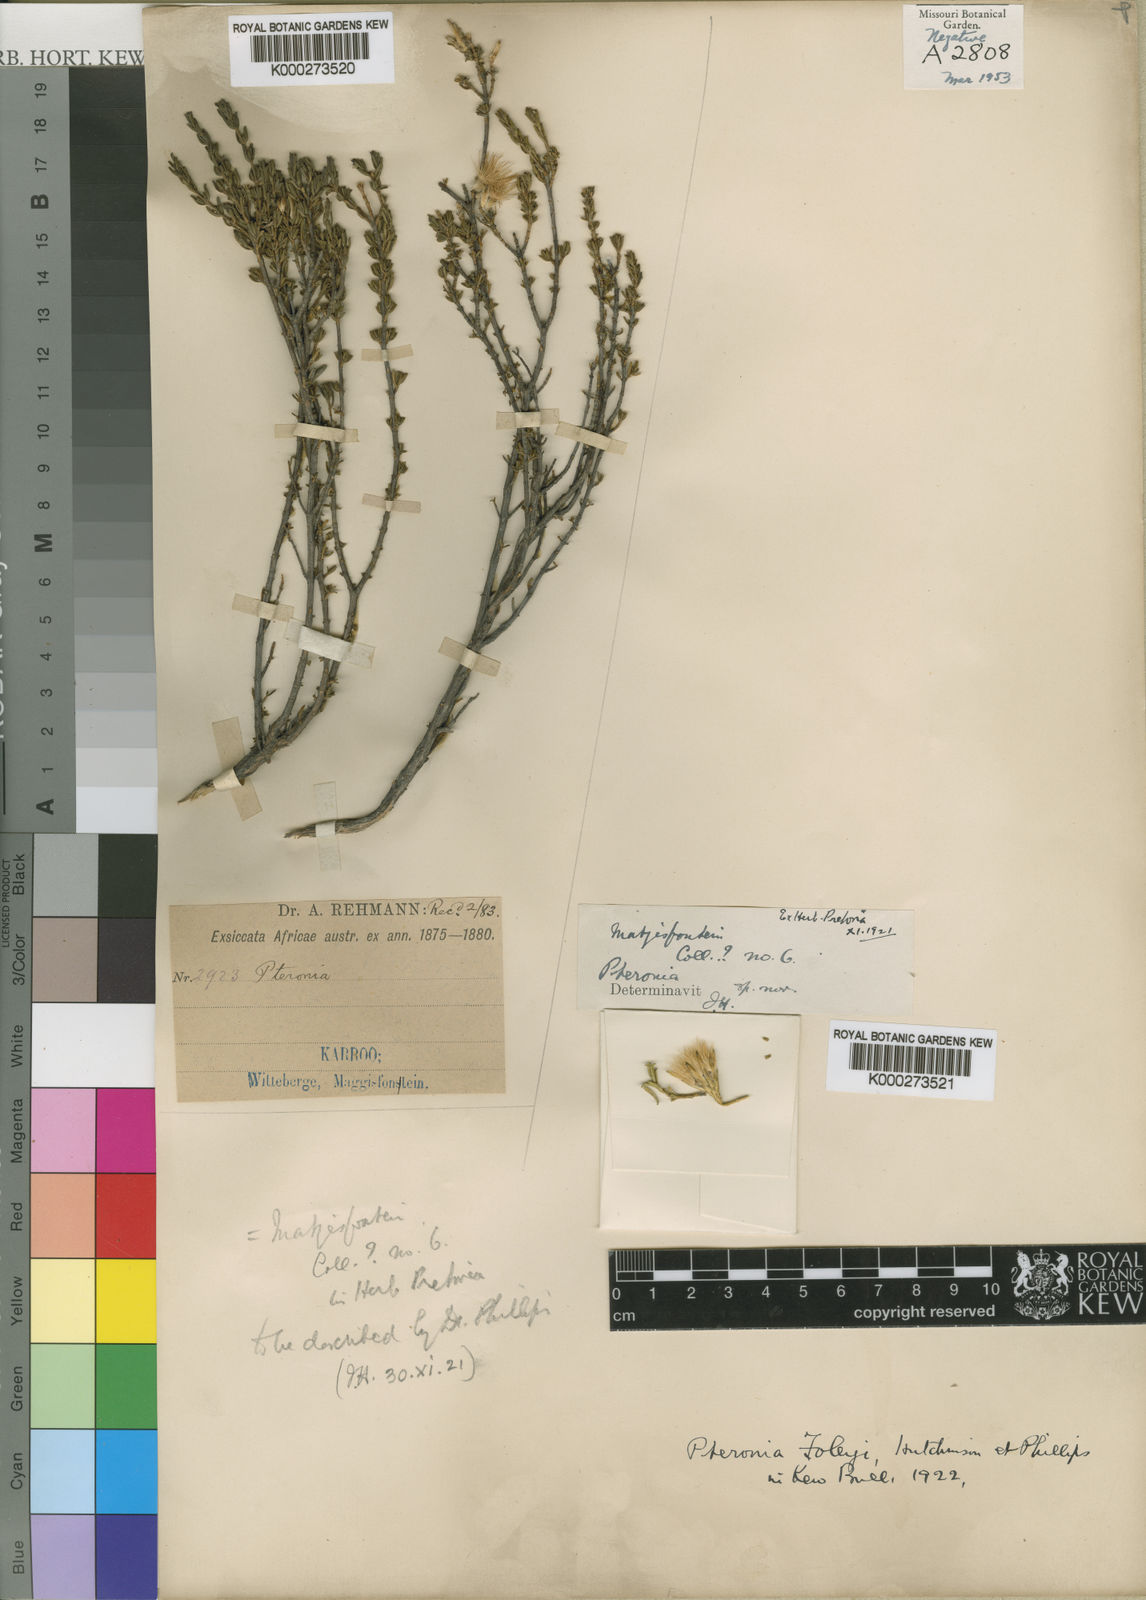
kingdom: Plantae
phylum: Tracheophyta
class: Magnoliopsida
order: Asterales
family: Asteraceae
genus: Pteronia
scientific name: Pteronia empetrifolia
